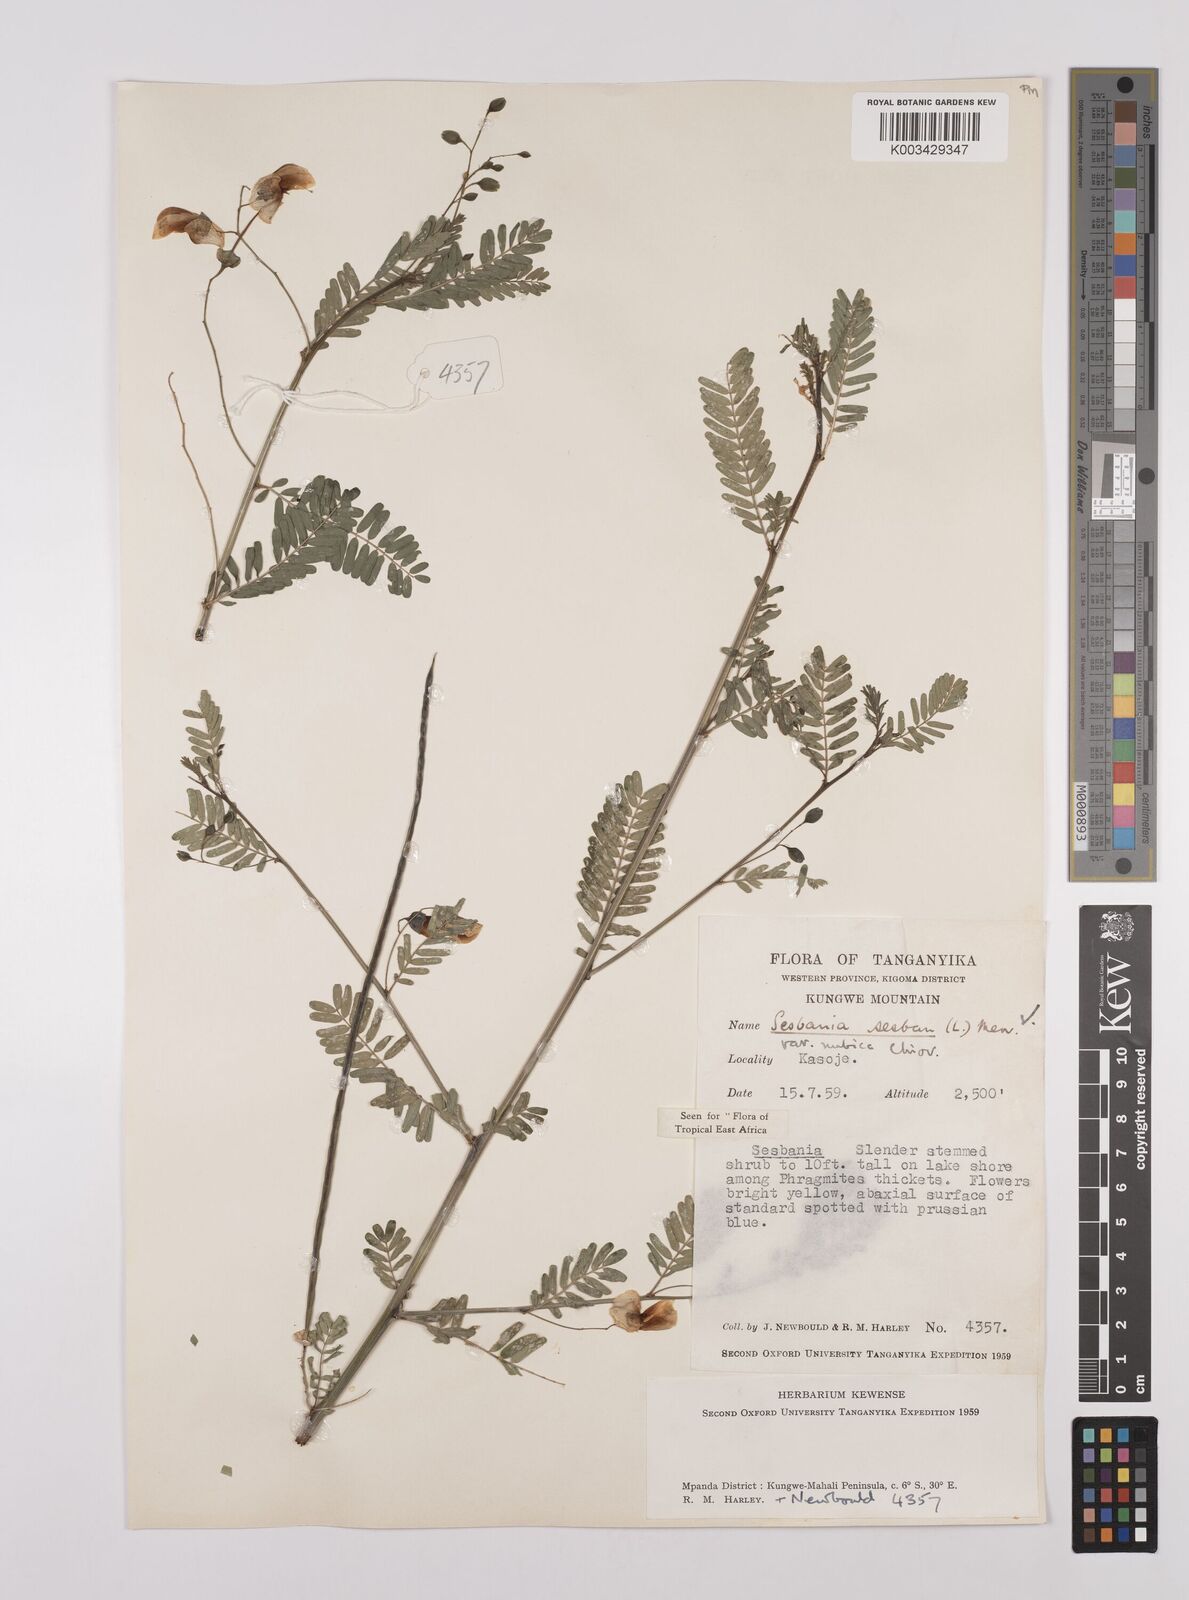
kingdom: Plantae
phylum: Tracheophyta
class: Magnoliopsida
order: Fabales
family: Fabaceae
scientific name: Fabaceae
